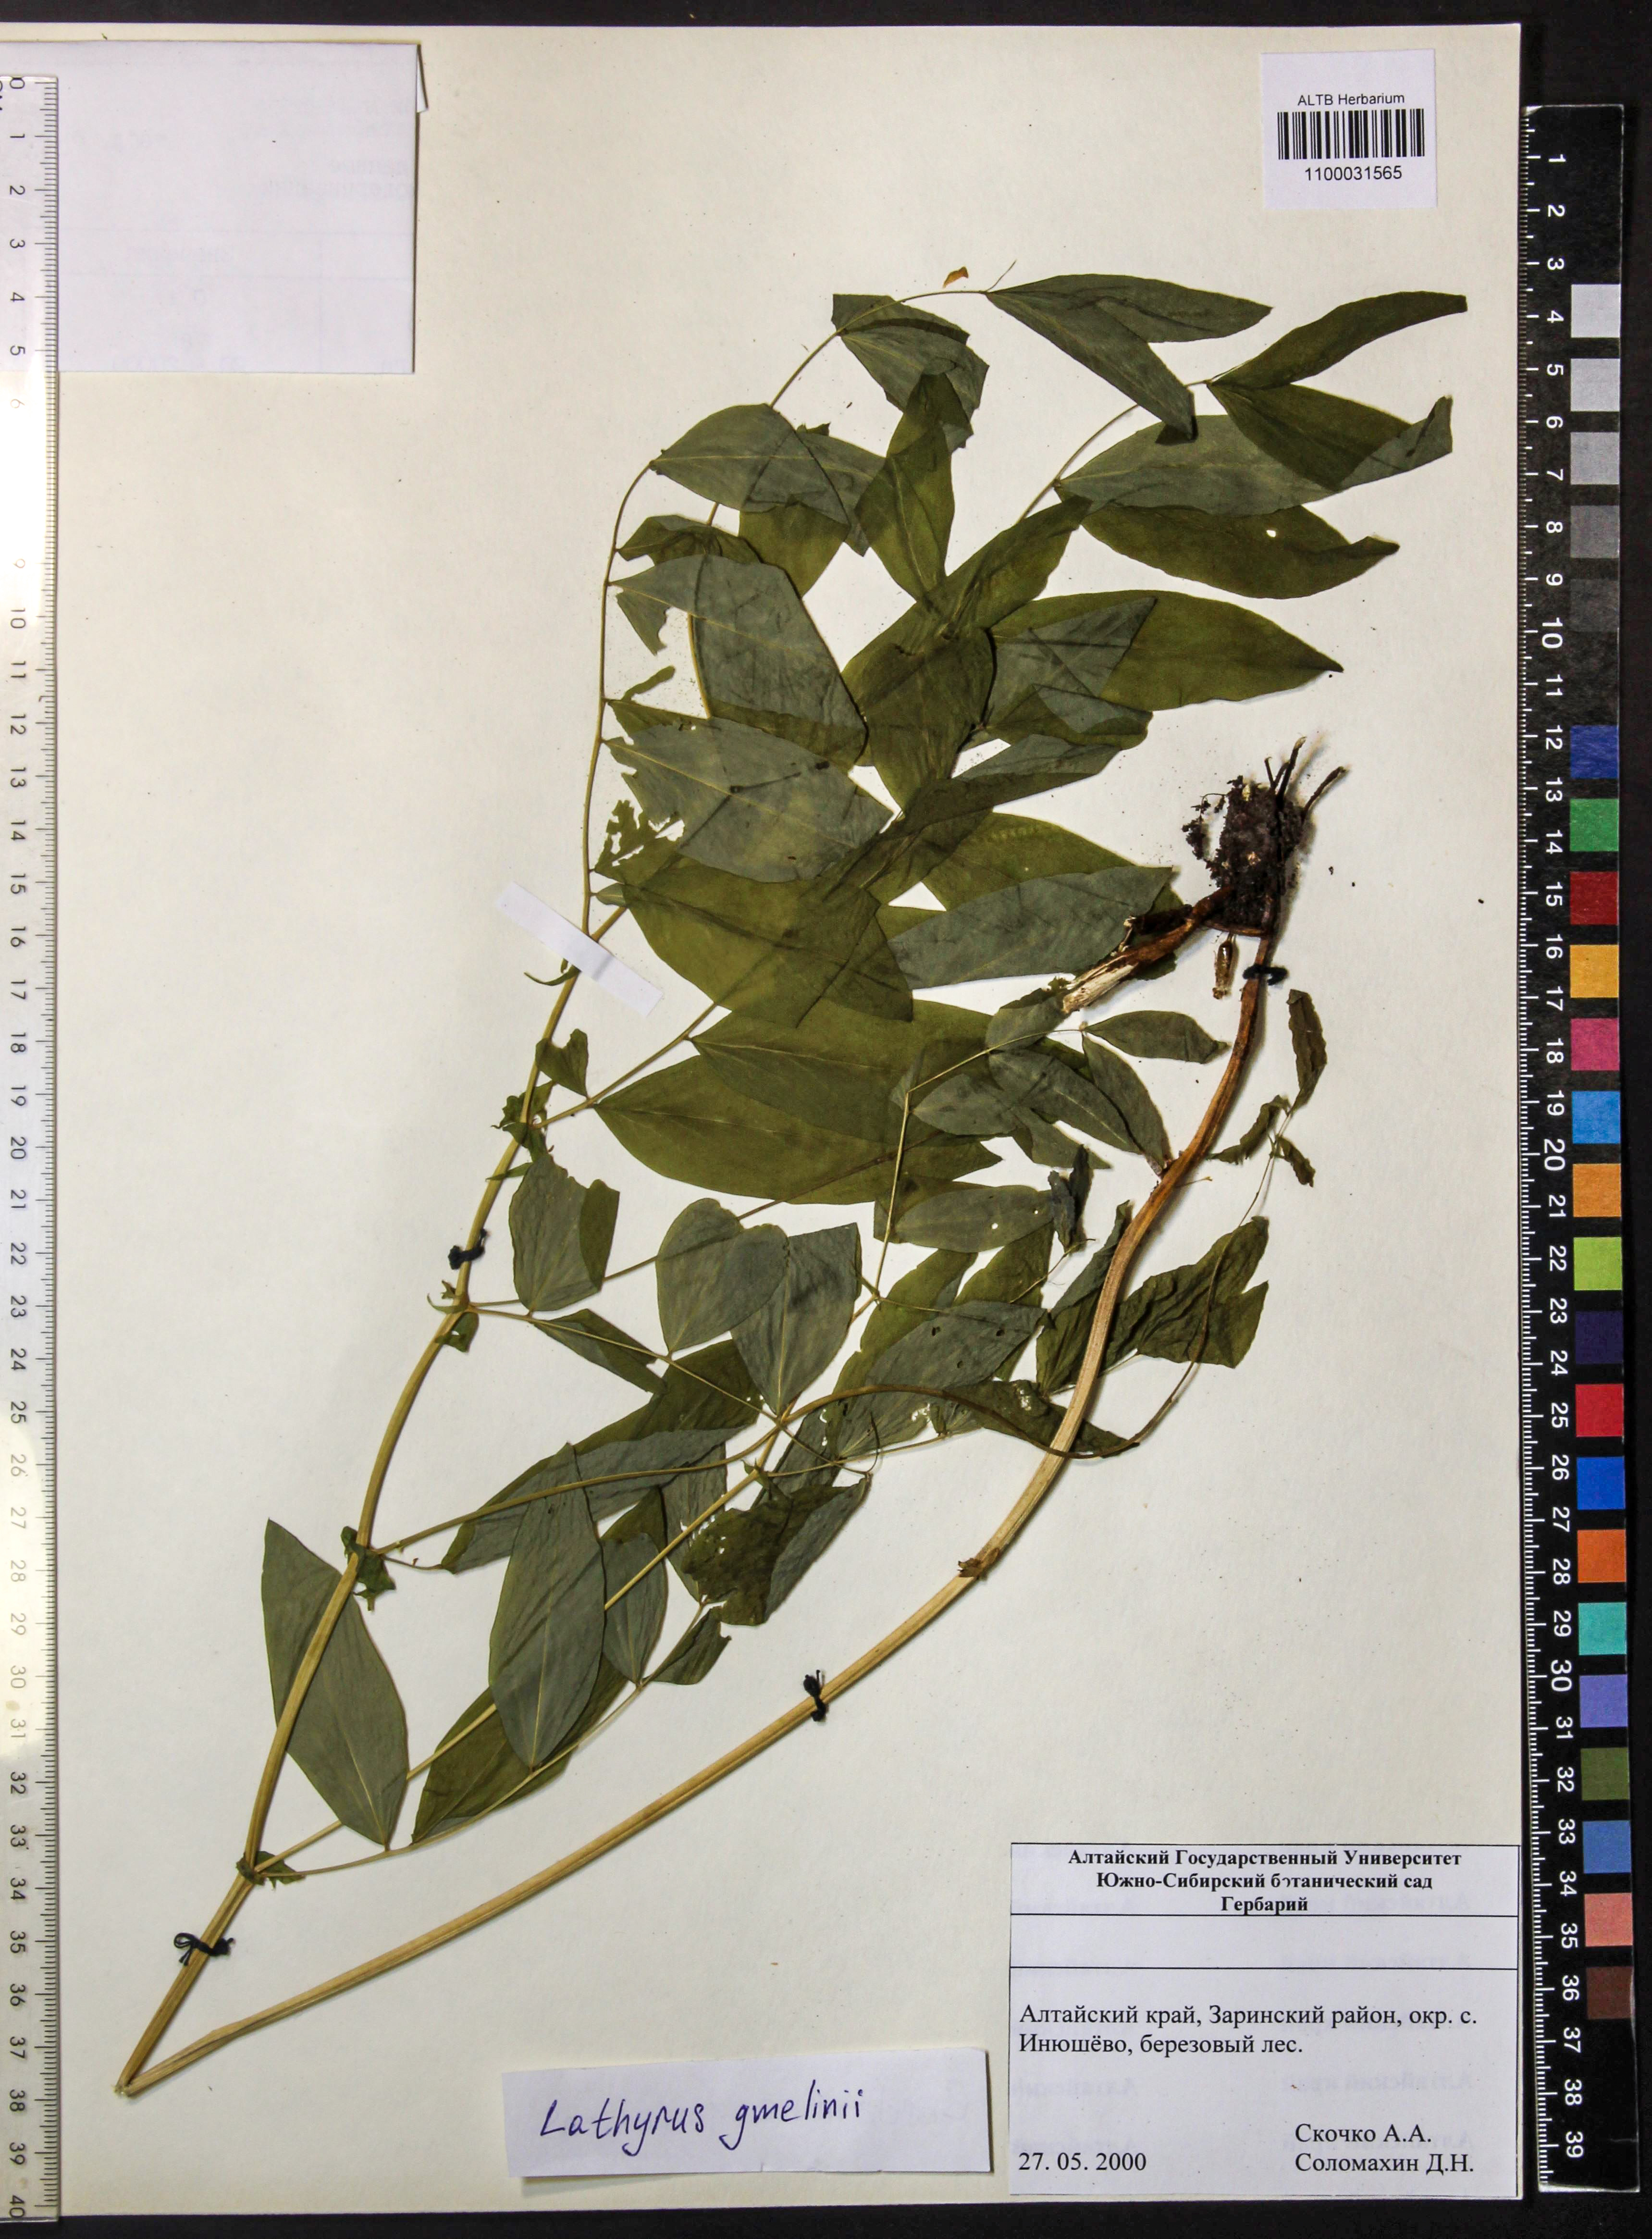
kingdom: Plantae
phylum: Tracheophyta
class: Magnoliopsida
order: Fabales
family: Fabaceae
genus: Lathyrus
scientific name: Lathyrus gmelinii
